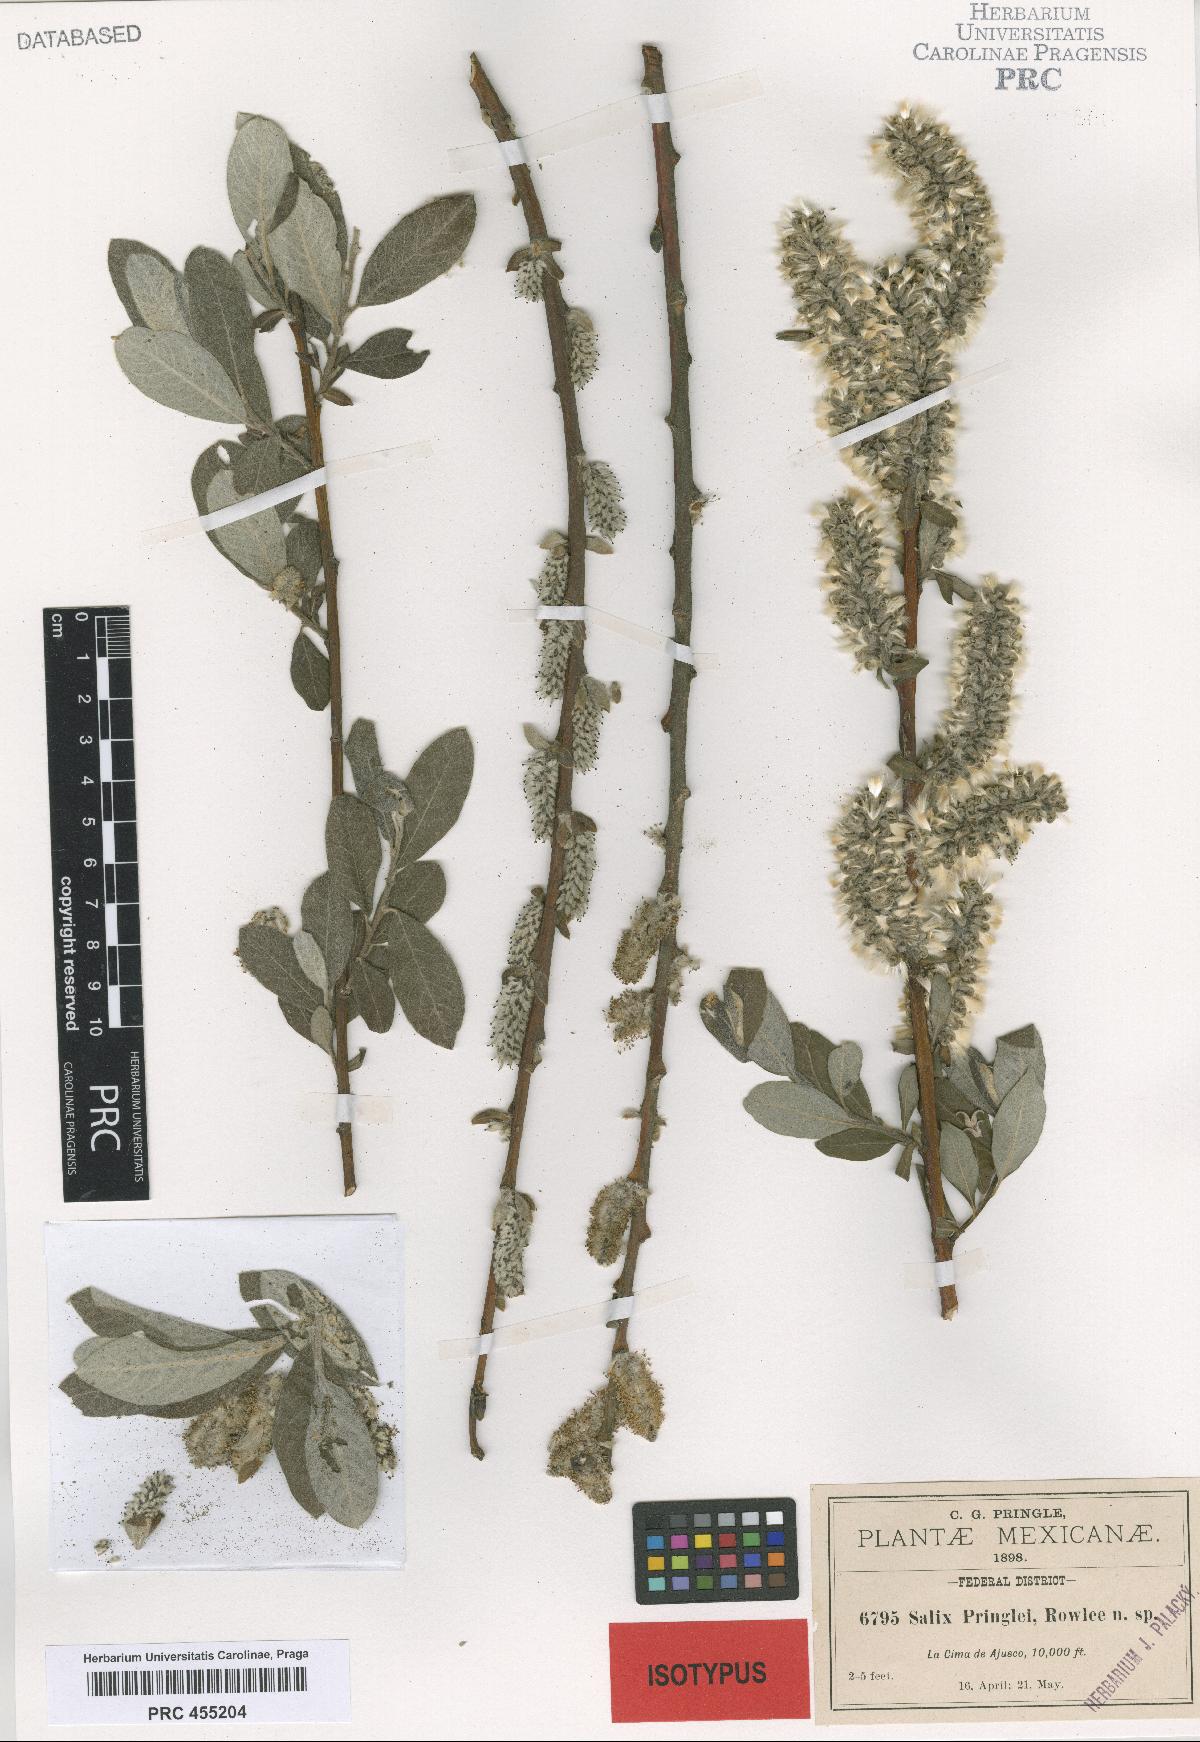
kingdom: Plantae
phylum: Tracheophyta
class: Magnoliopsida
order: Malpighiales
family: Salicaceae
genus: Salix
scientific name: Salix paradoxa
